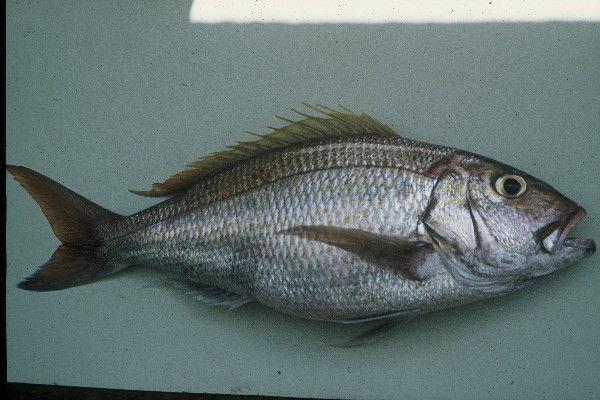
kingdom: Animalia
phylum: Chordata
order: Perciformes
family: Lutjanidae
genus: Pristipomoides
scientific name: Pristipomoides multidens
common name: Gold band jobfish
